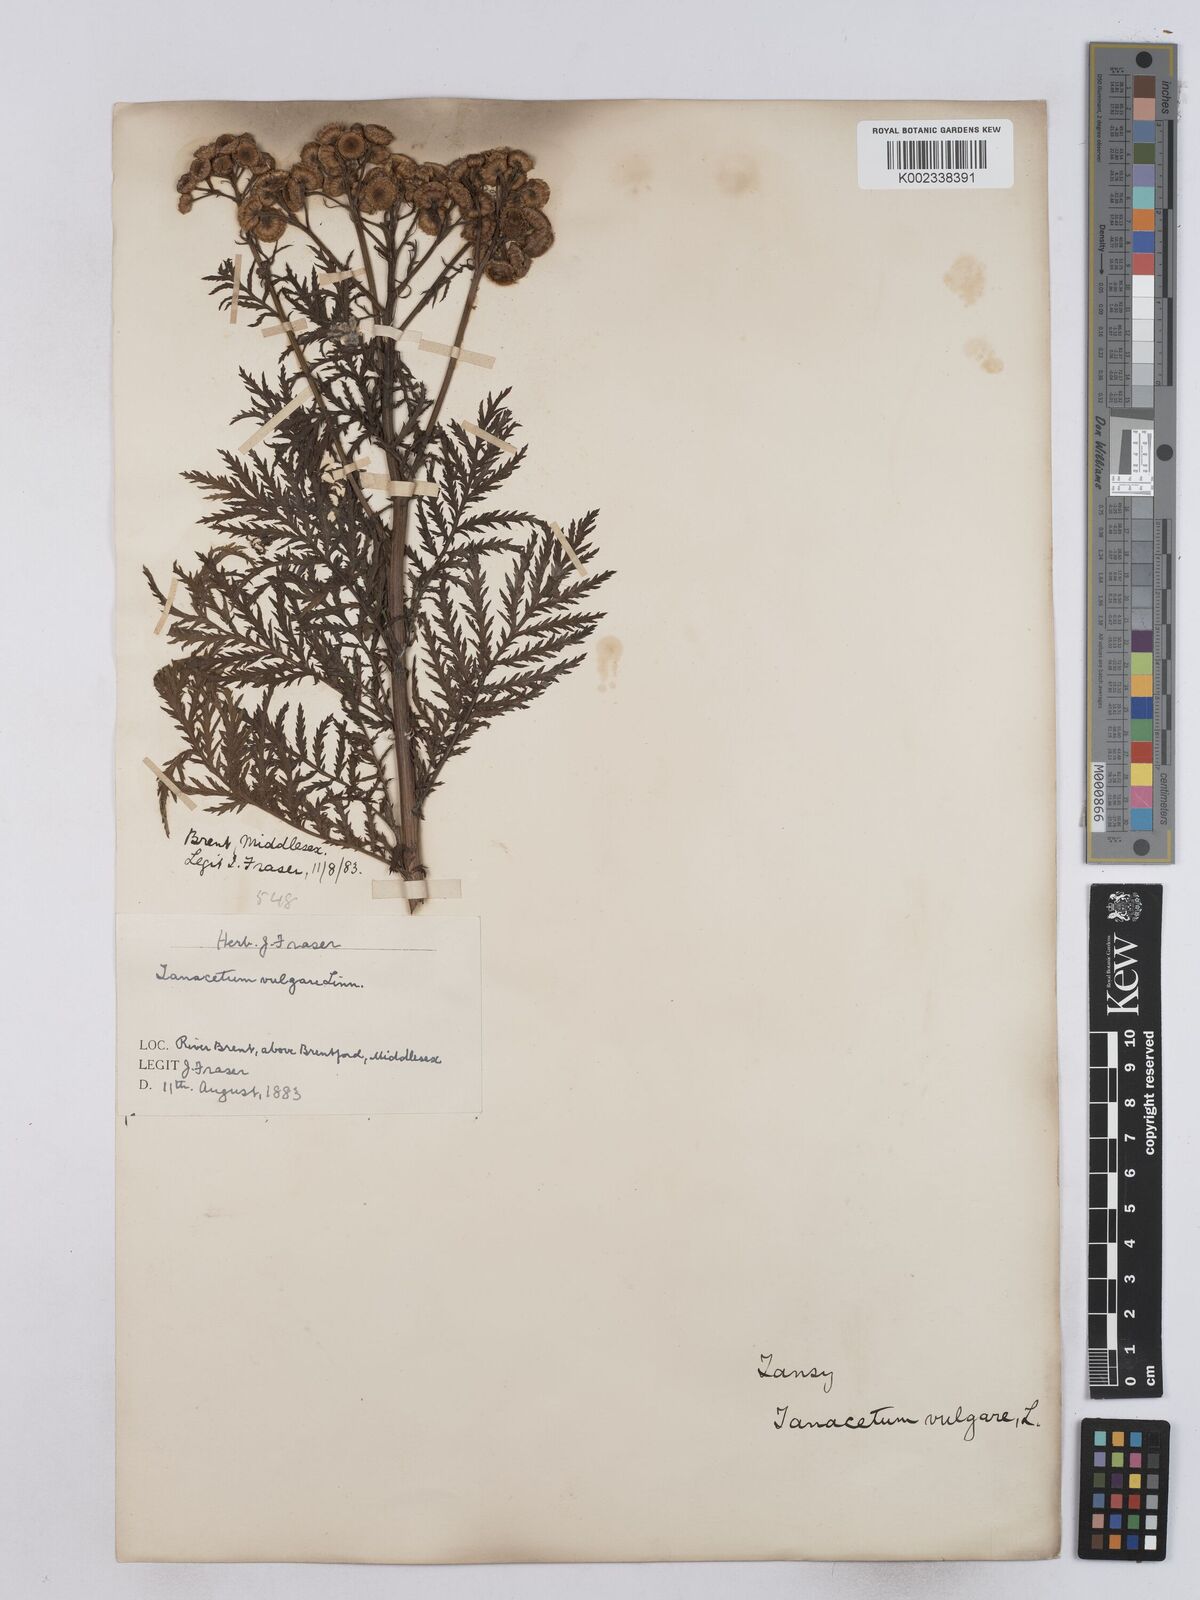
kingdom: Plantae
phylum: Tracheophyta
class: Magnoliopsida
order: Asterales
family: Asteraceae
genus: Tanacetum
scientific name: Tanacetum vulgare
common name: Common tansy
